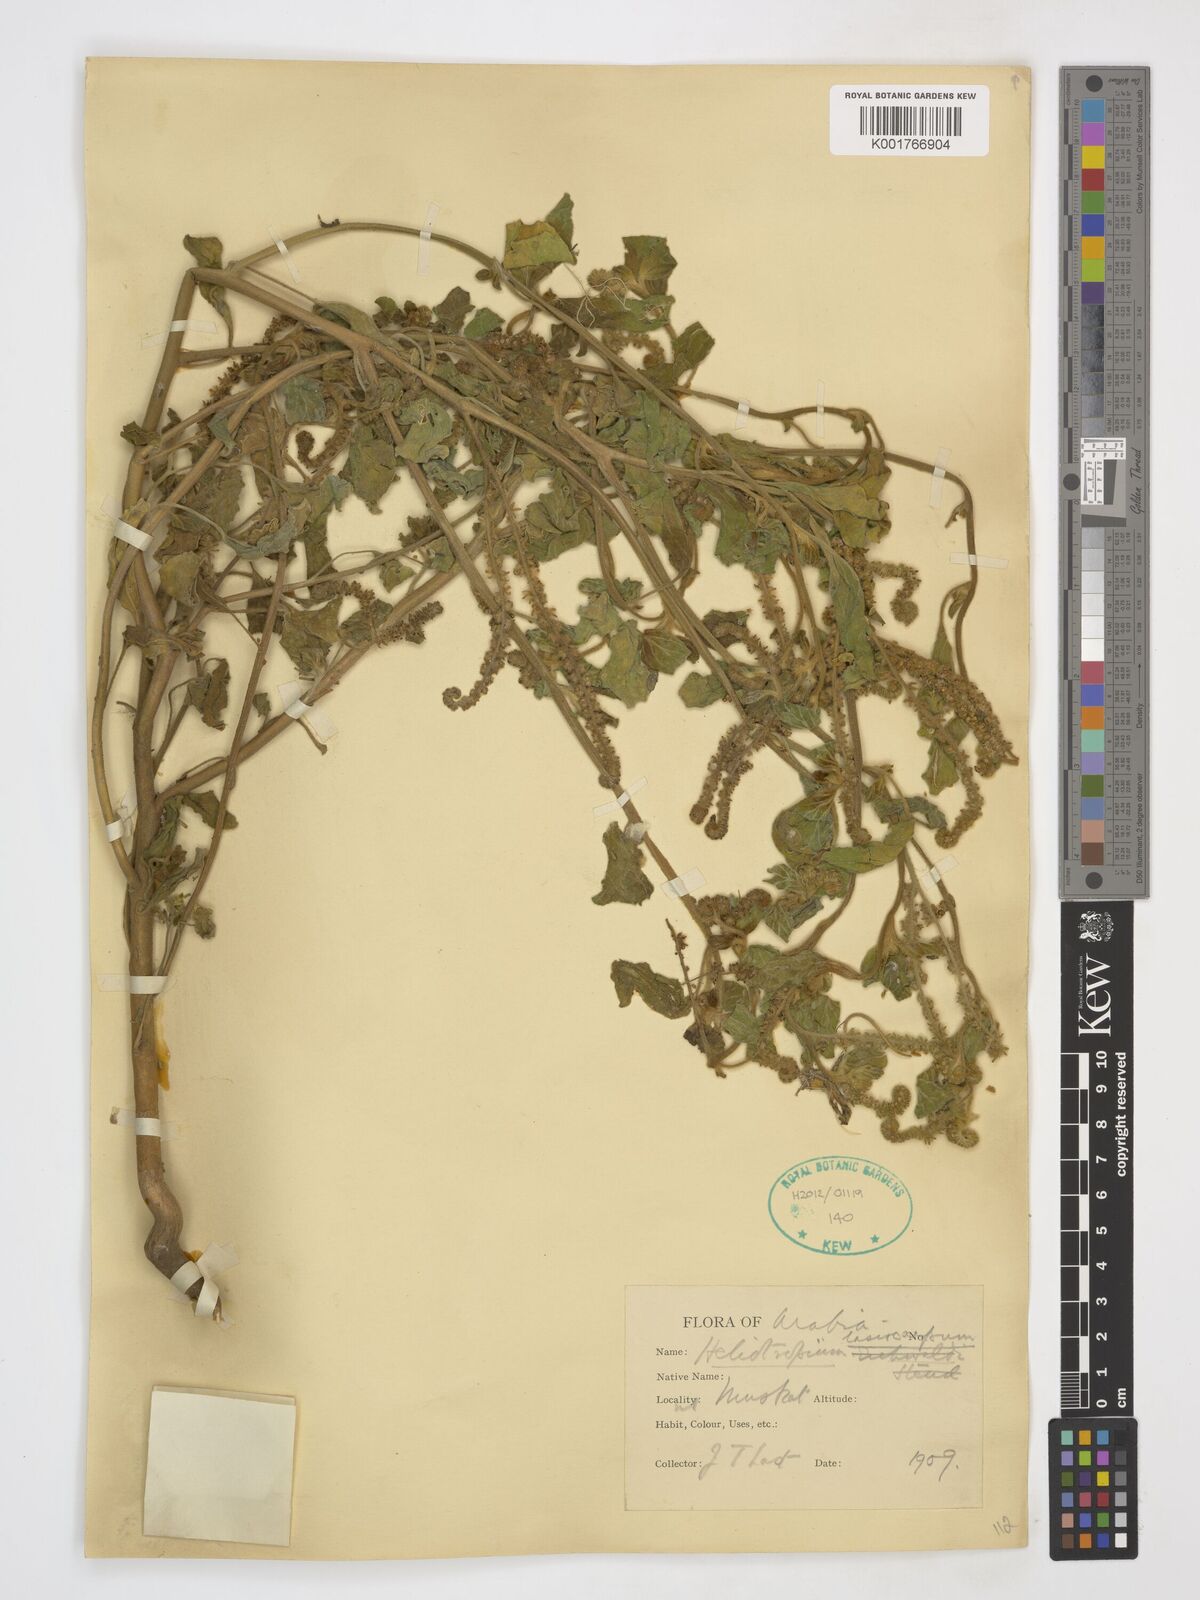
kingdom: Plantae
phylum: Tracheophyta
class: Magnoliopsida
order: Boraginales
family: Heliotropiaceae
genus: Heliotropium
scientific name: Heliotropium lasiocarpum
